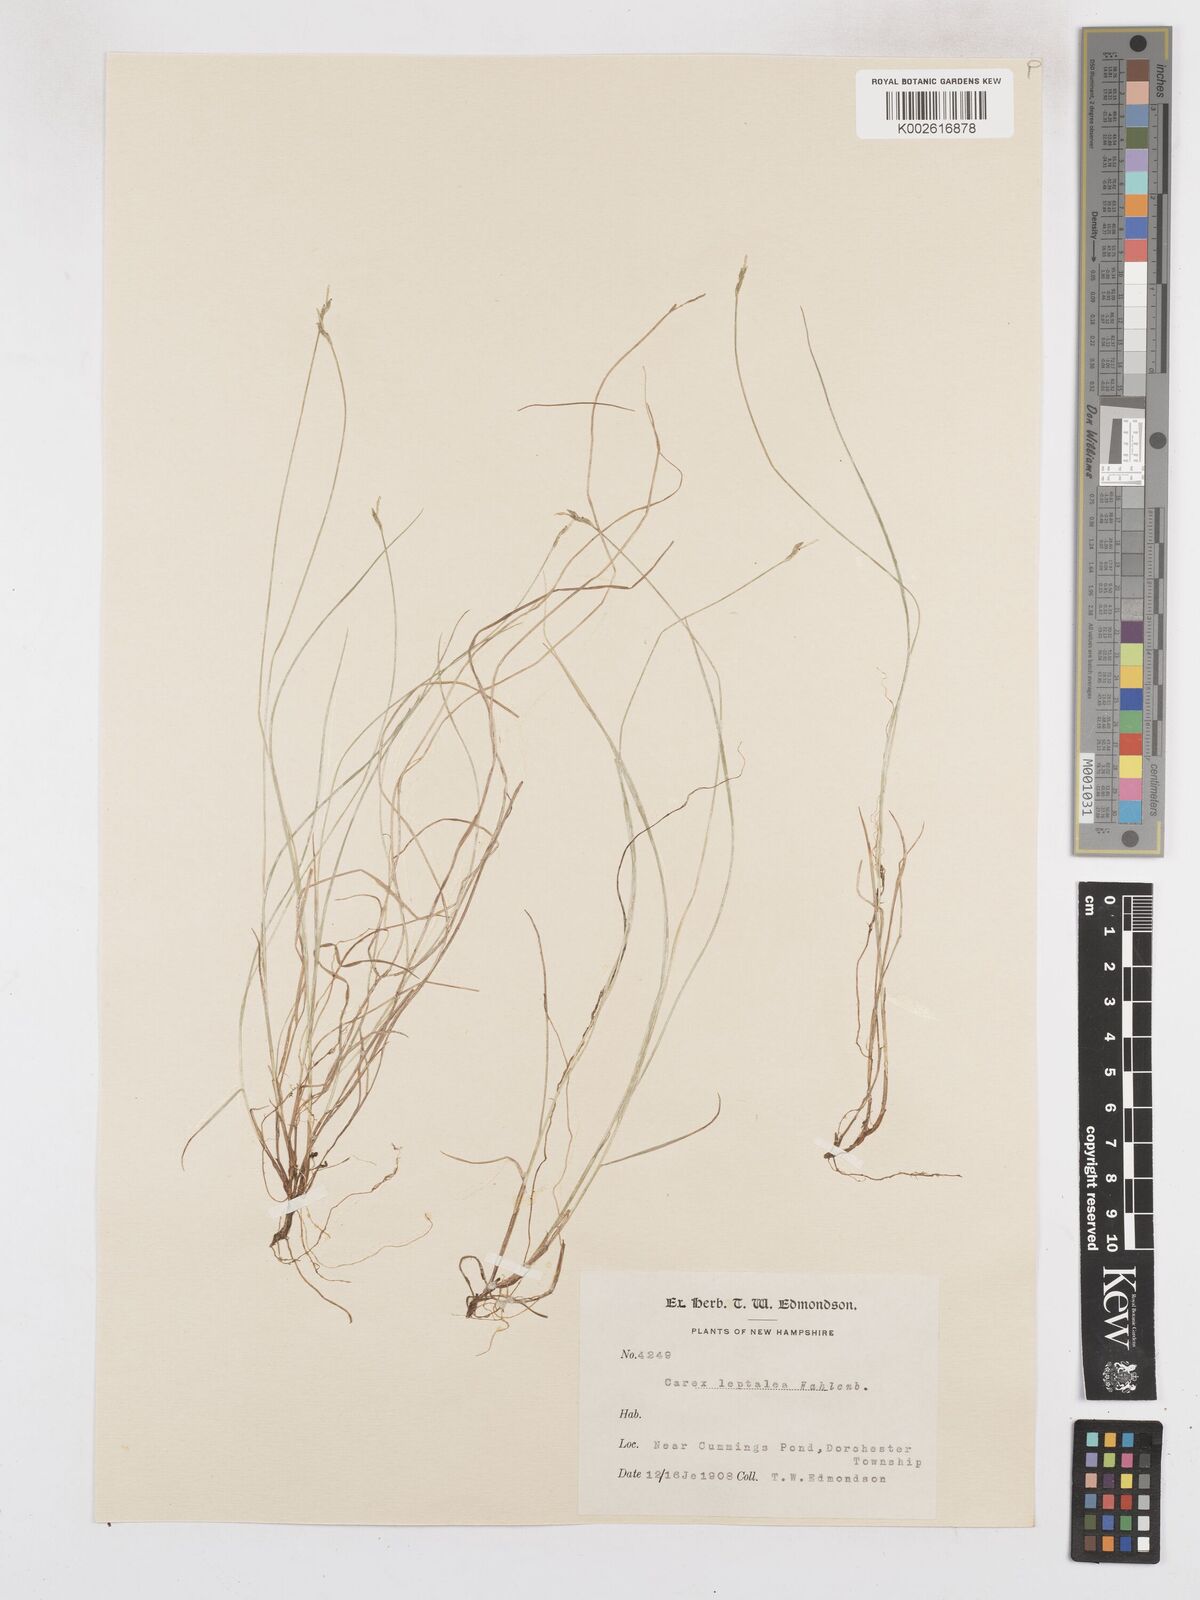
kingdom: Plantae
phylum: Tracheophyta
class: Liliopsida
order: Poales
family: Cyperaceae
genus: Carex
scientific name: Carex leptalea
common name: Bristly-stalked sedge
